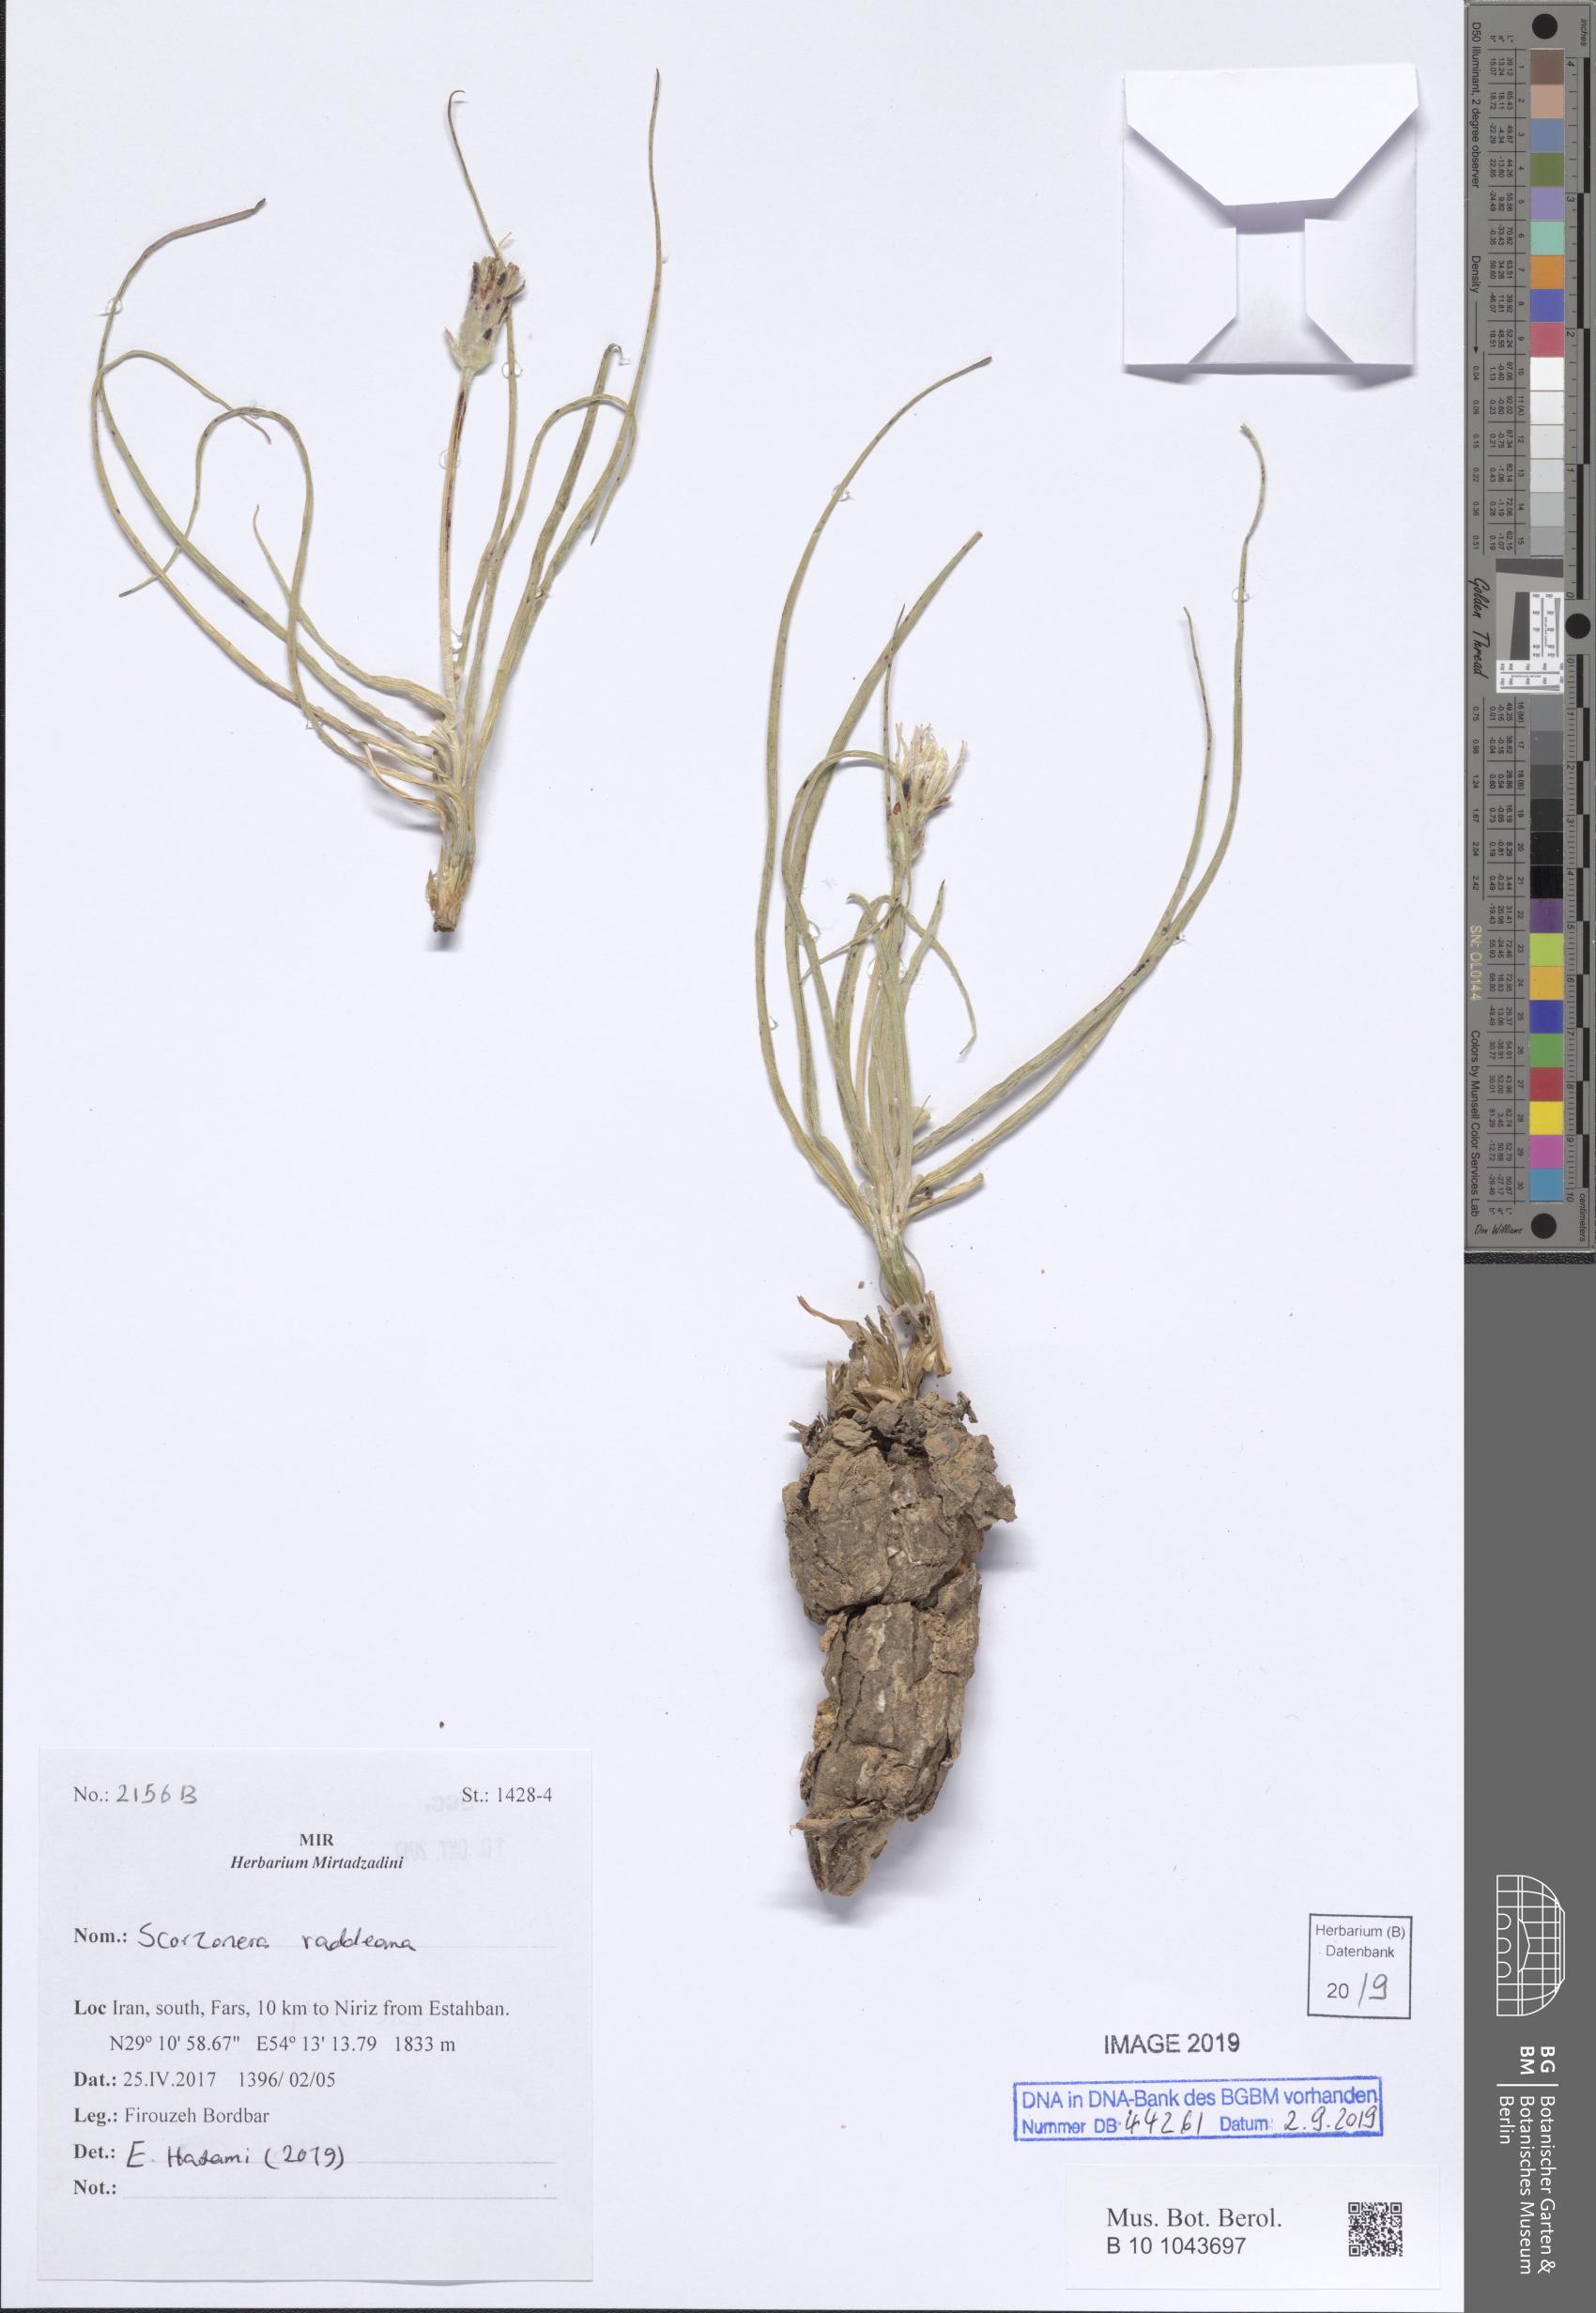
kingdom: Plantae
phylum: Tracheophyta
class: Magnoliopsida
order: Asterales
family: Asteraceae
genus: Candollea
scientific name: Candollea raddeana
